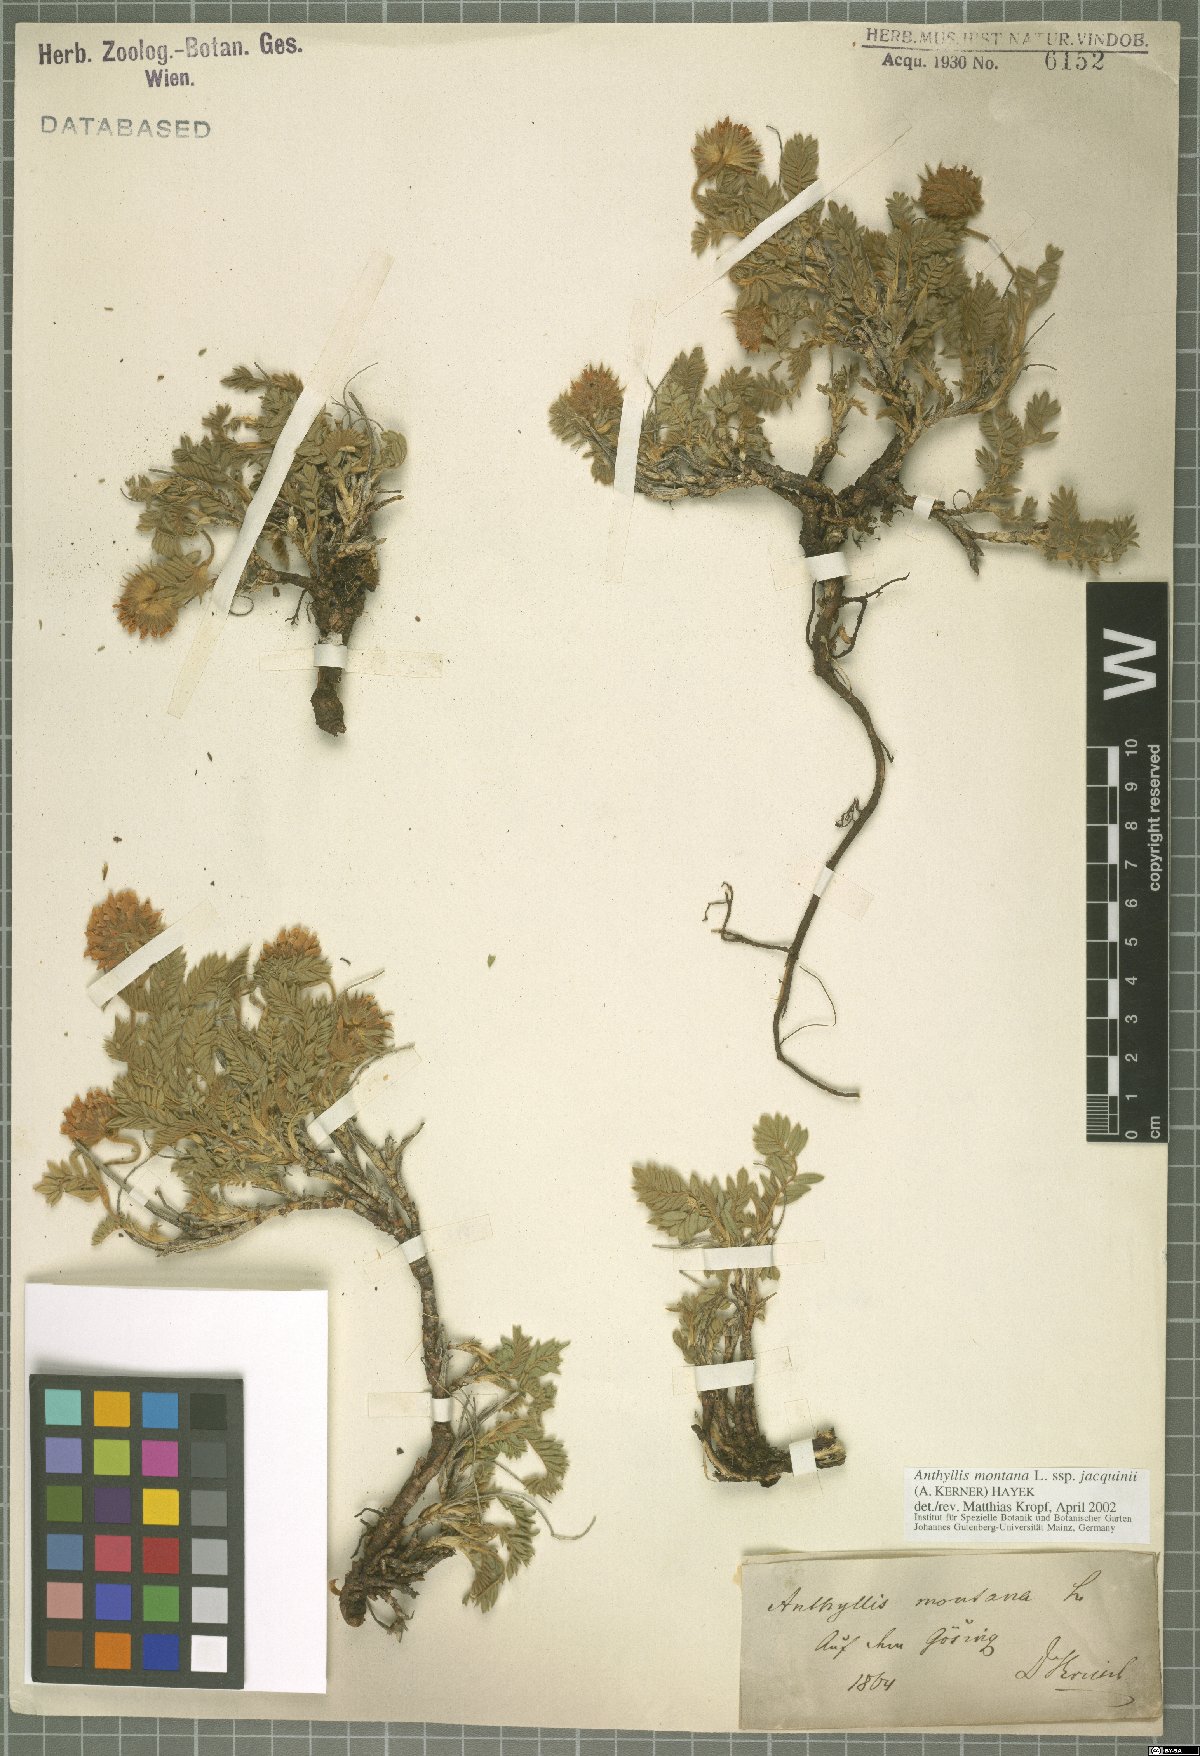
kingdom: Plantae
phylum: Tracheophyta
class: Magnoliopsida
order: Fabales
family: Fabaceae
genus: Anthyllis
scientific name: Anthyllis montana
